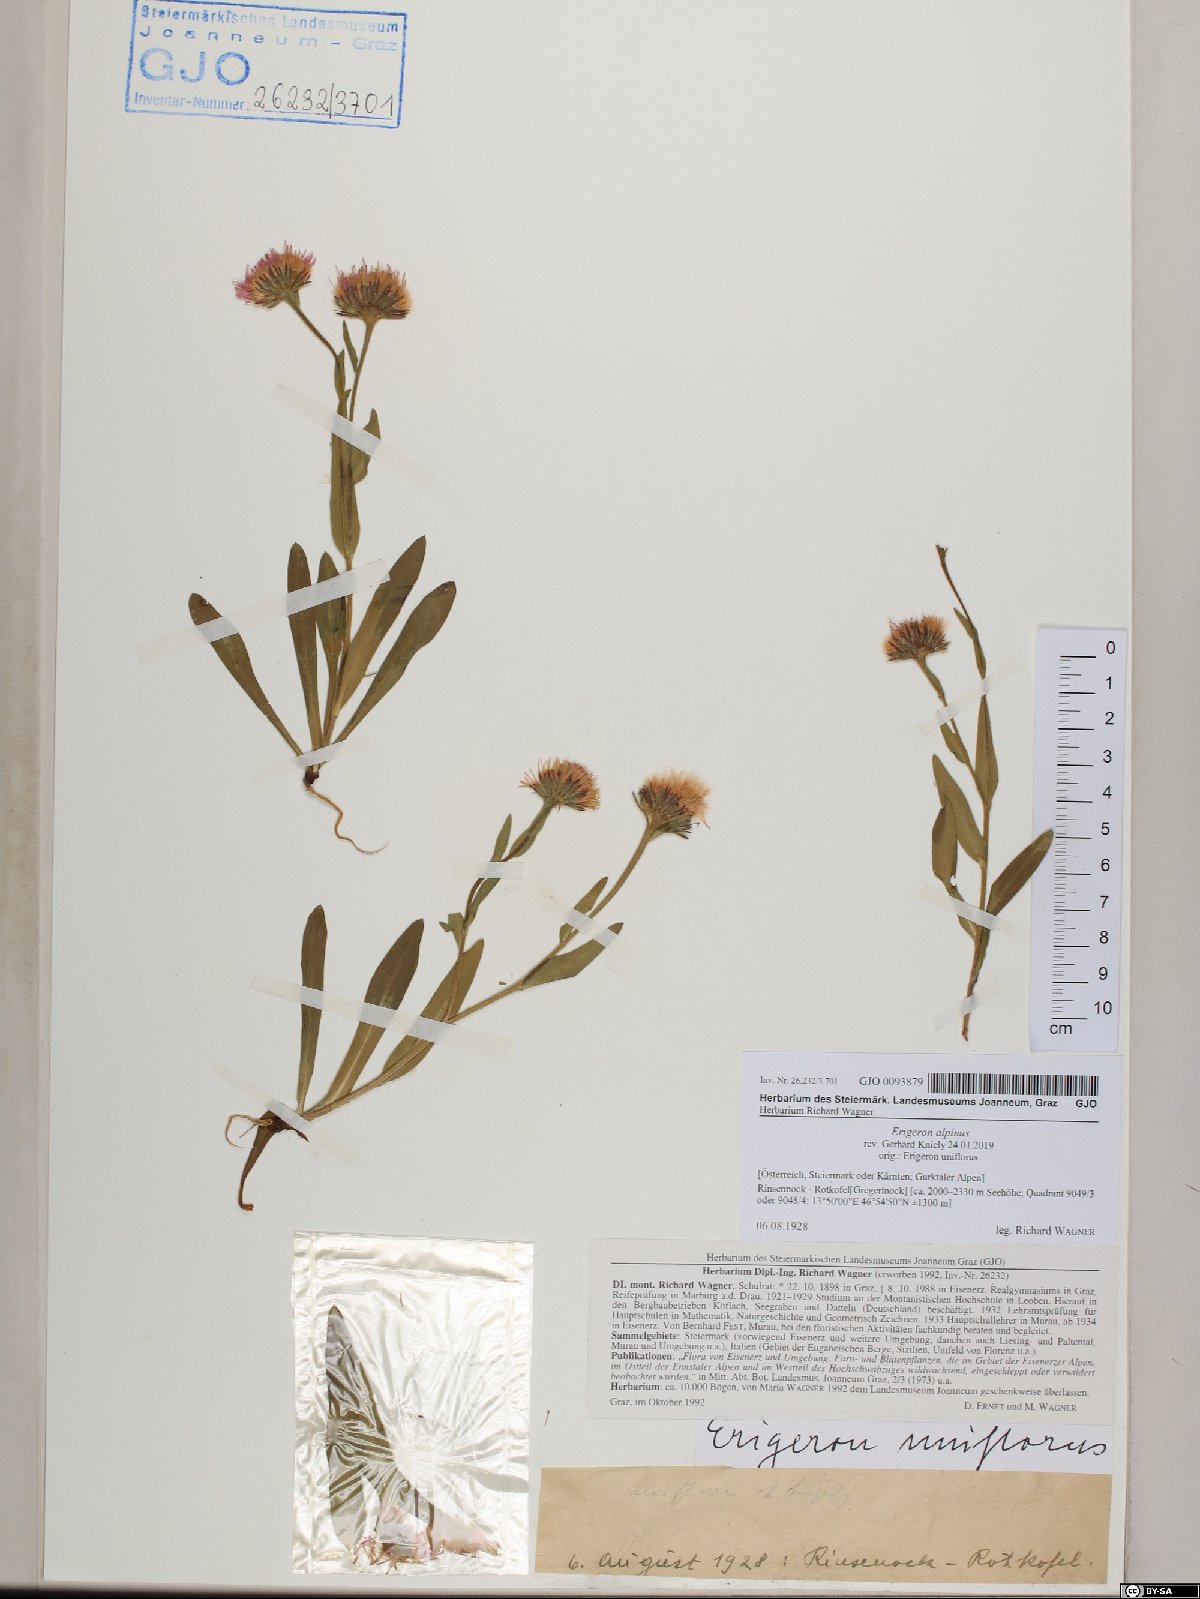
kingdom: Plantae
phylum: Tracheophyta
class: Magnoliopsida
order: Asterales
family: Asteraceae
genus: Erigeron
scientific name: Erigeron alpinus
